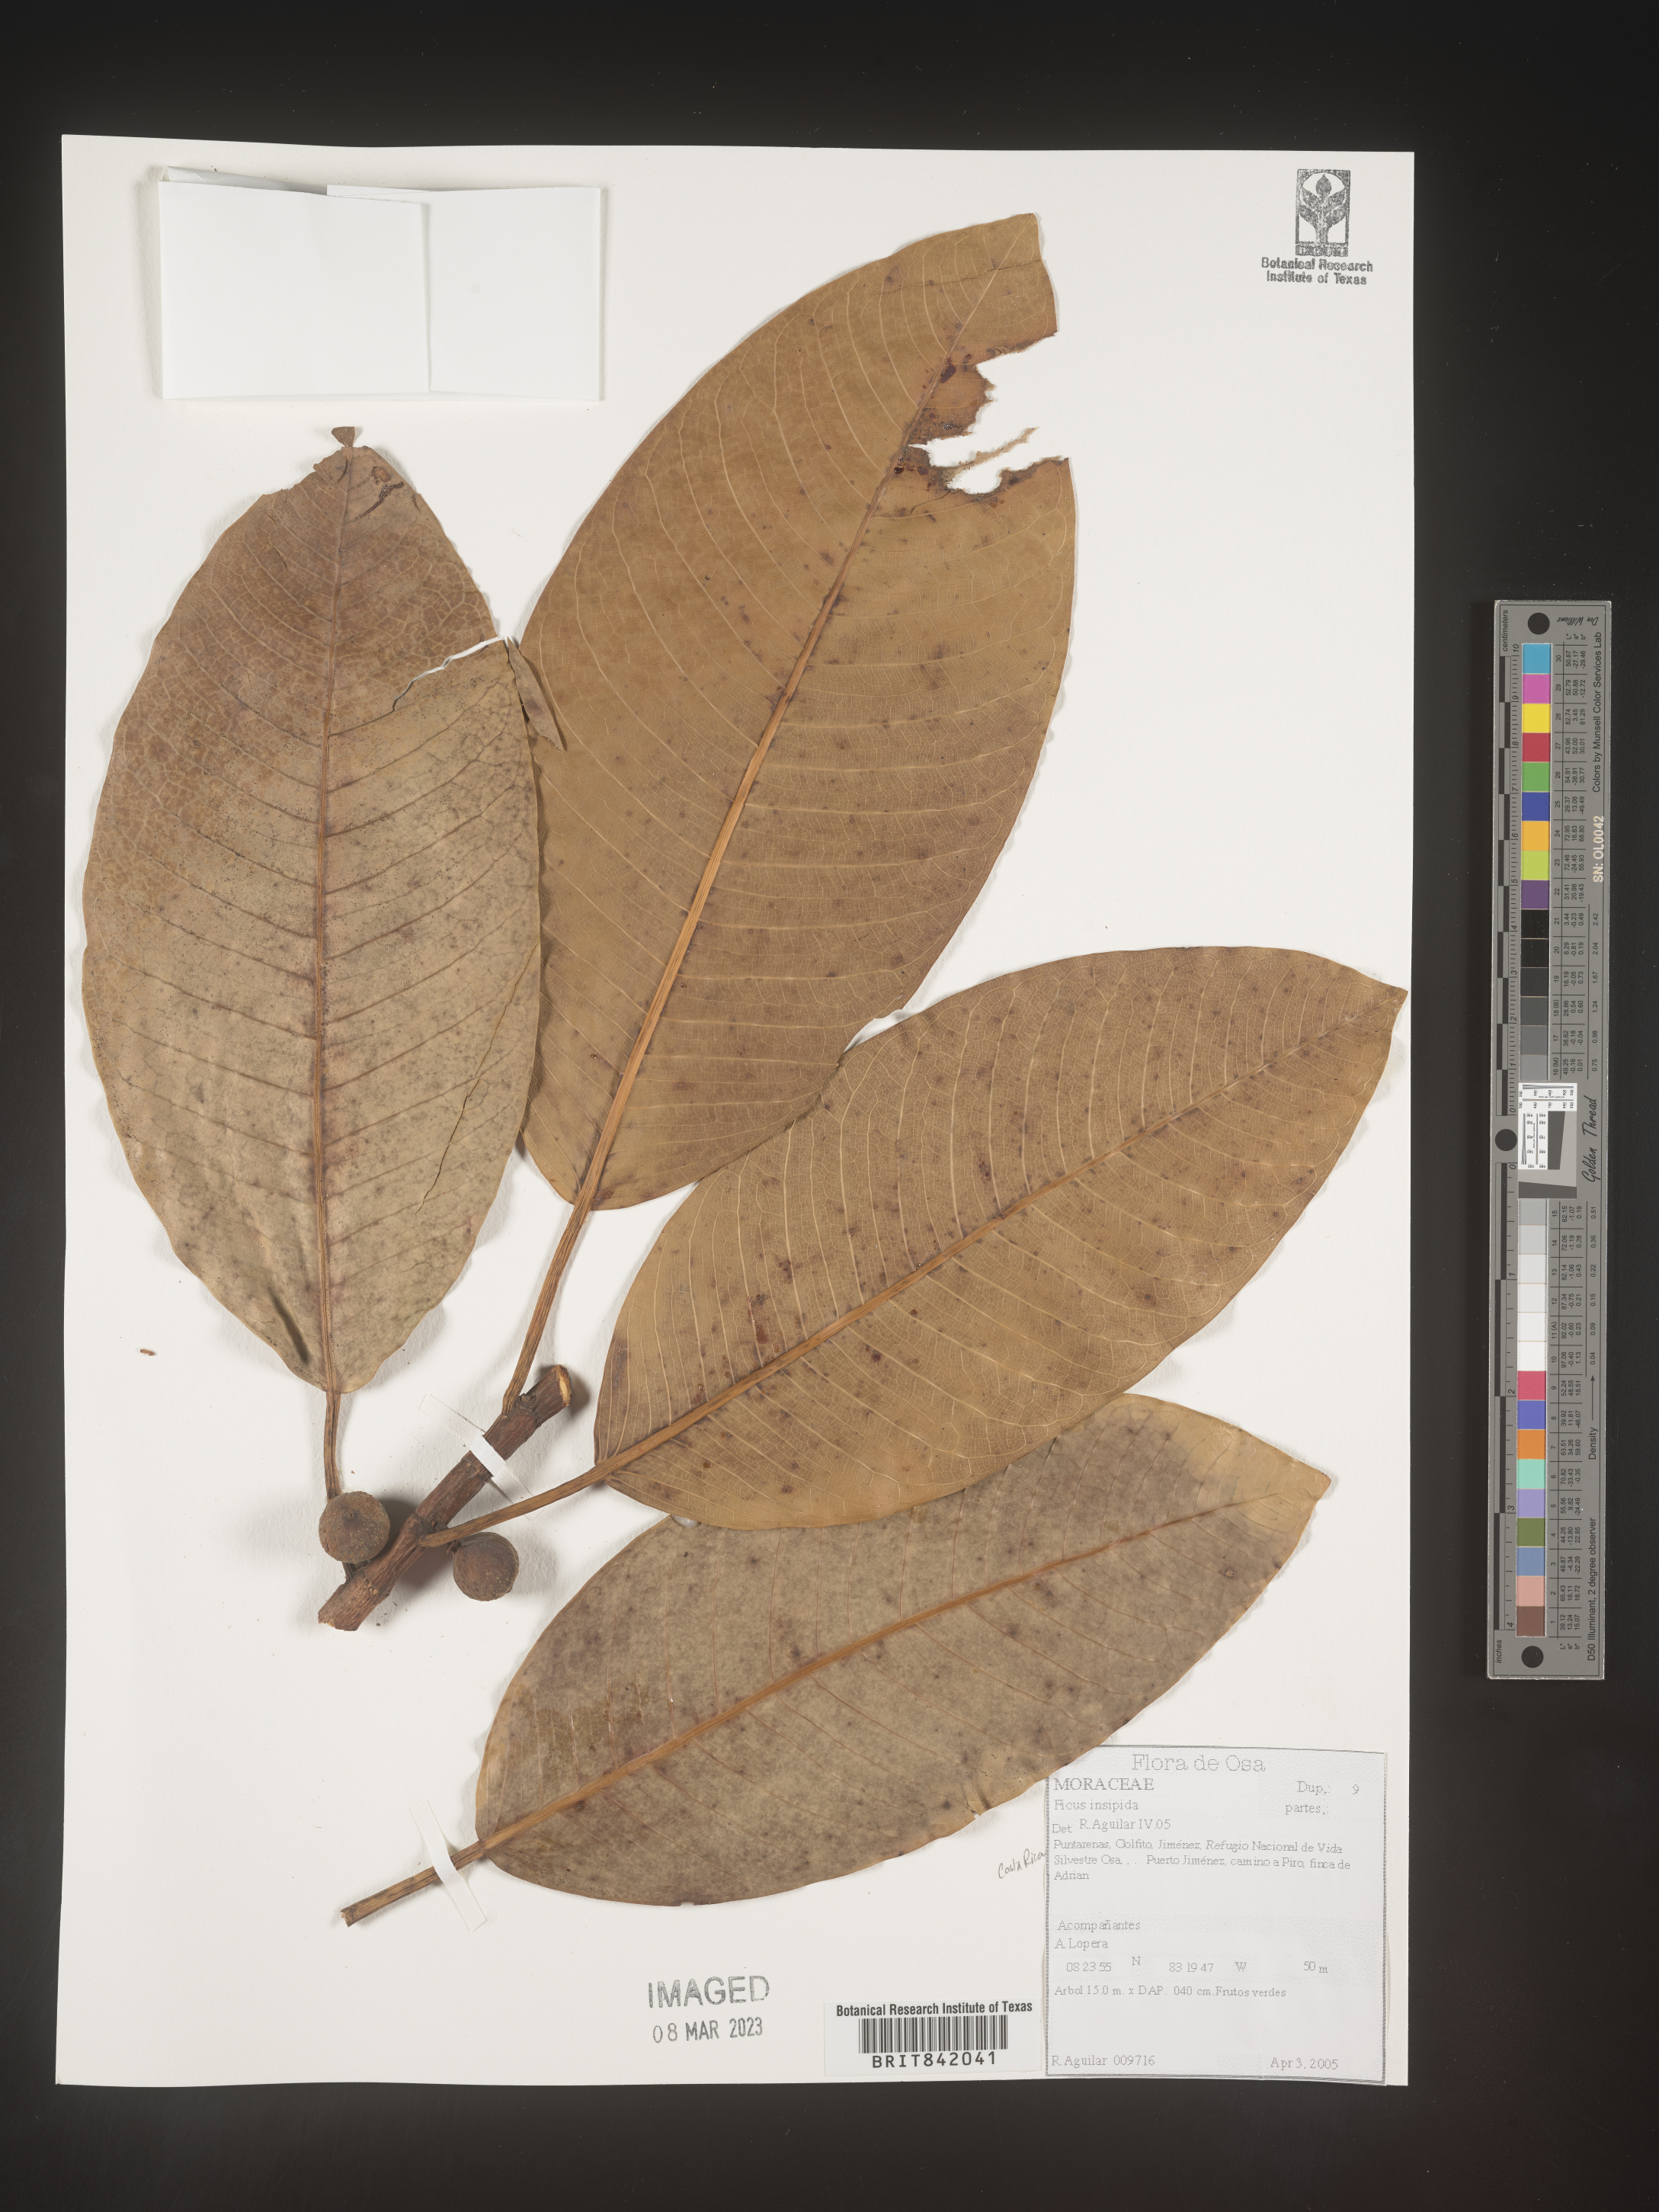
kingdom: Plantae
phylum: Tracheophyta
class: Magnoliopsida
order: Rosales
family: Moraceae
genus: Ficus
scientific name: Ficus insipida
